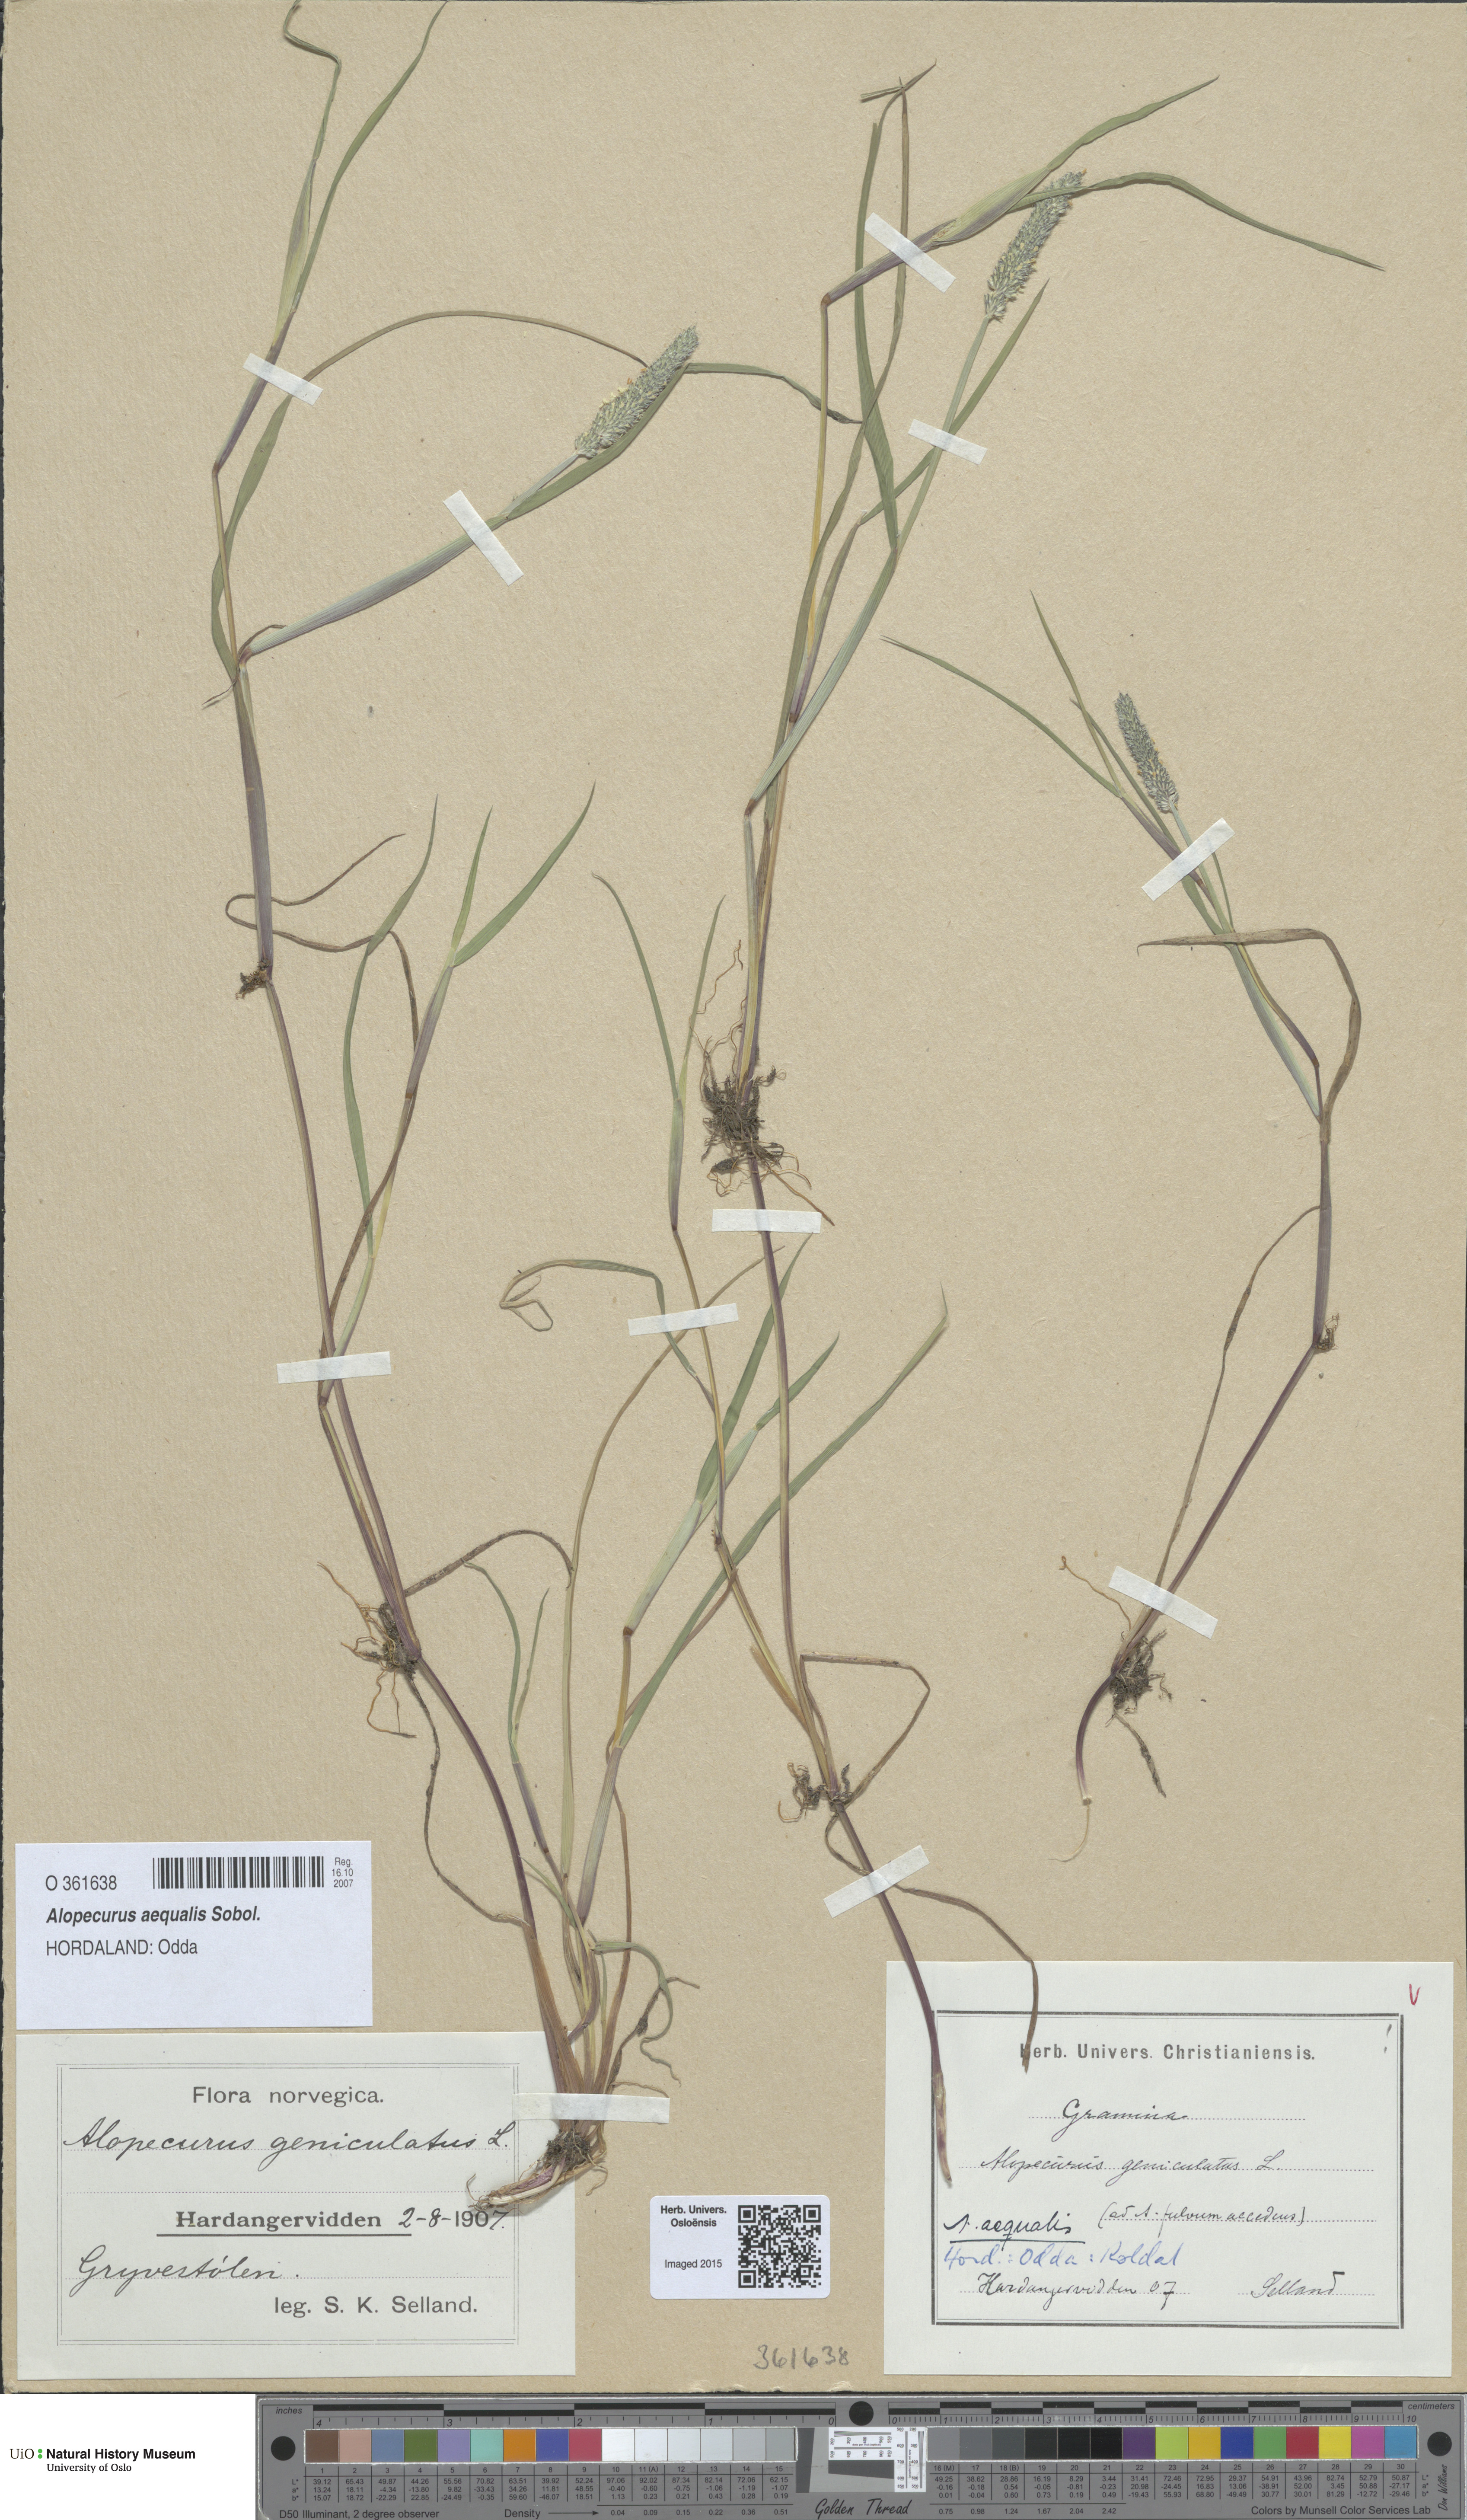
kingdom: Plantae
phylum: Tracheophyta
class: Liliopsida
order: Poales
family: Poaceae
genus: Alopecurus
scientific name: Alopecurus aequalis
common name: Orange foxtail
